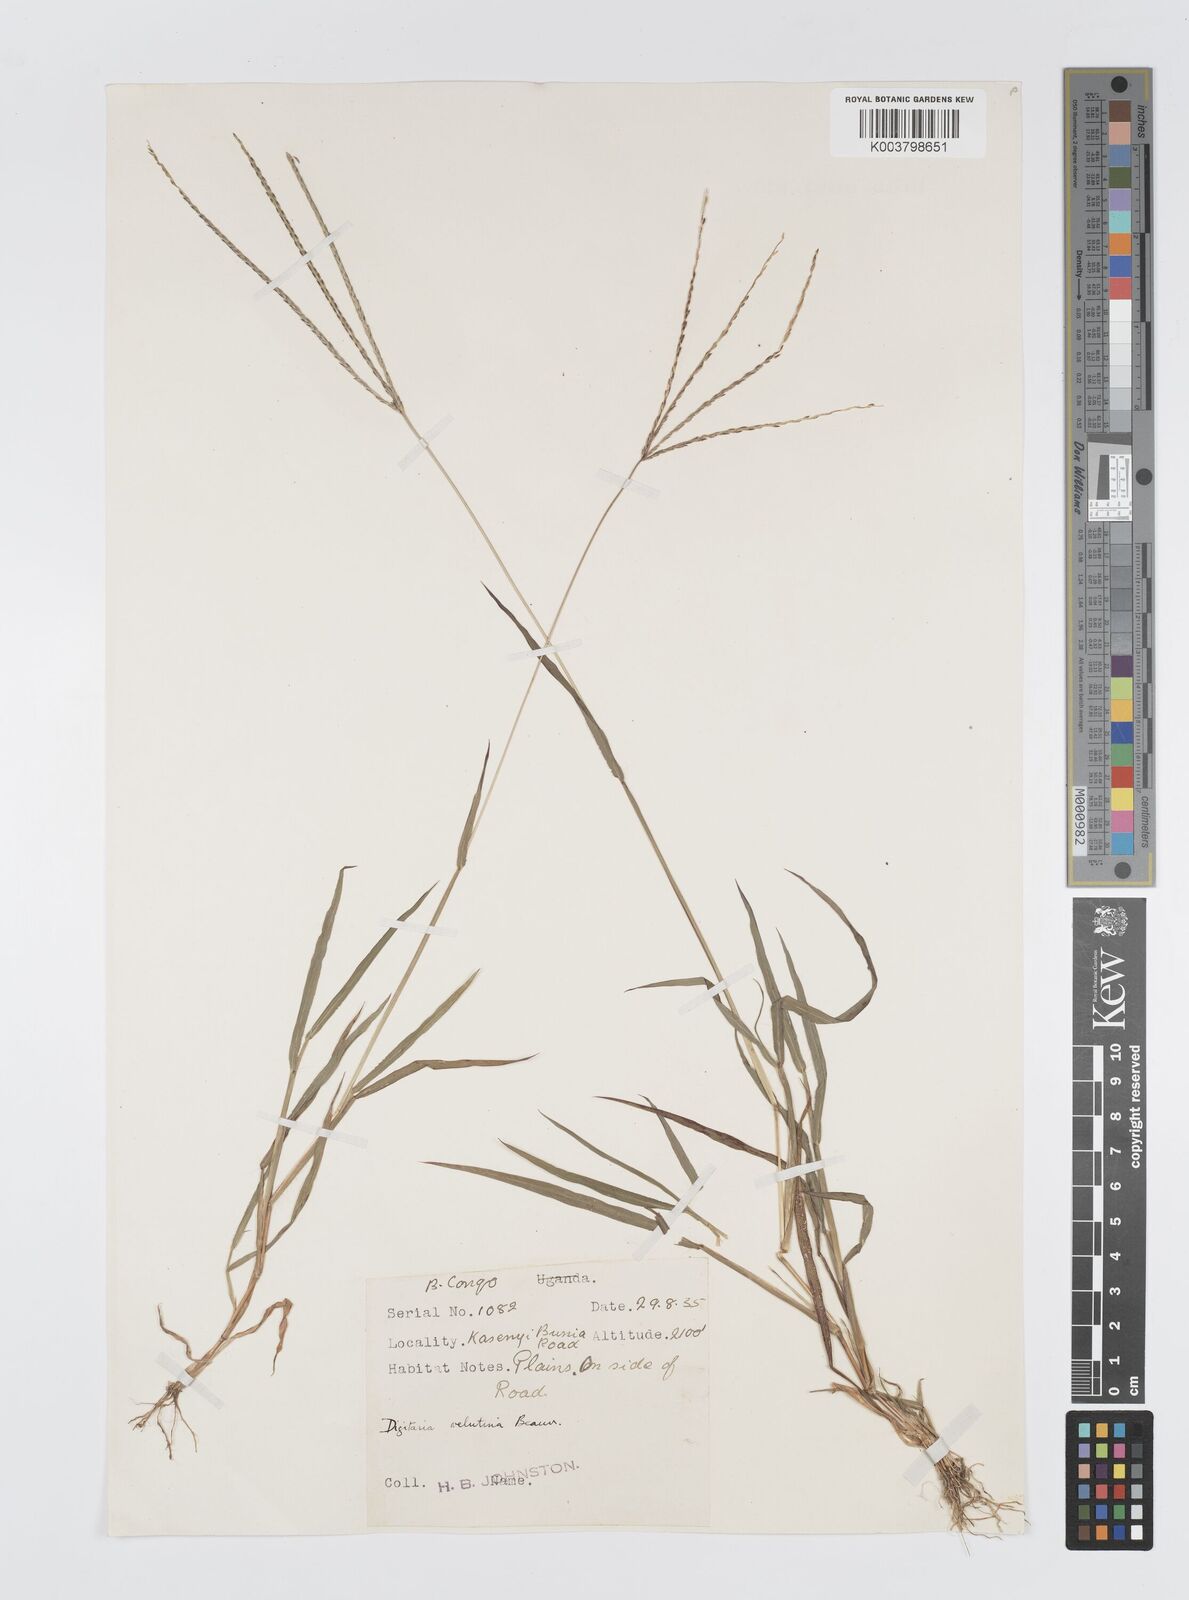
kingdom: Plantae
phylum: Tracheophyta
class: Liliopsida
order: Poales
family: Poaceae
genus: Digitaria
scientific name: Digitaria milanjiana
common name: Madagascar crabgrass
